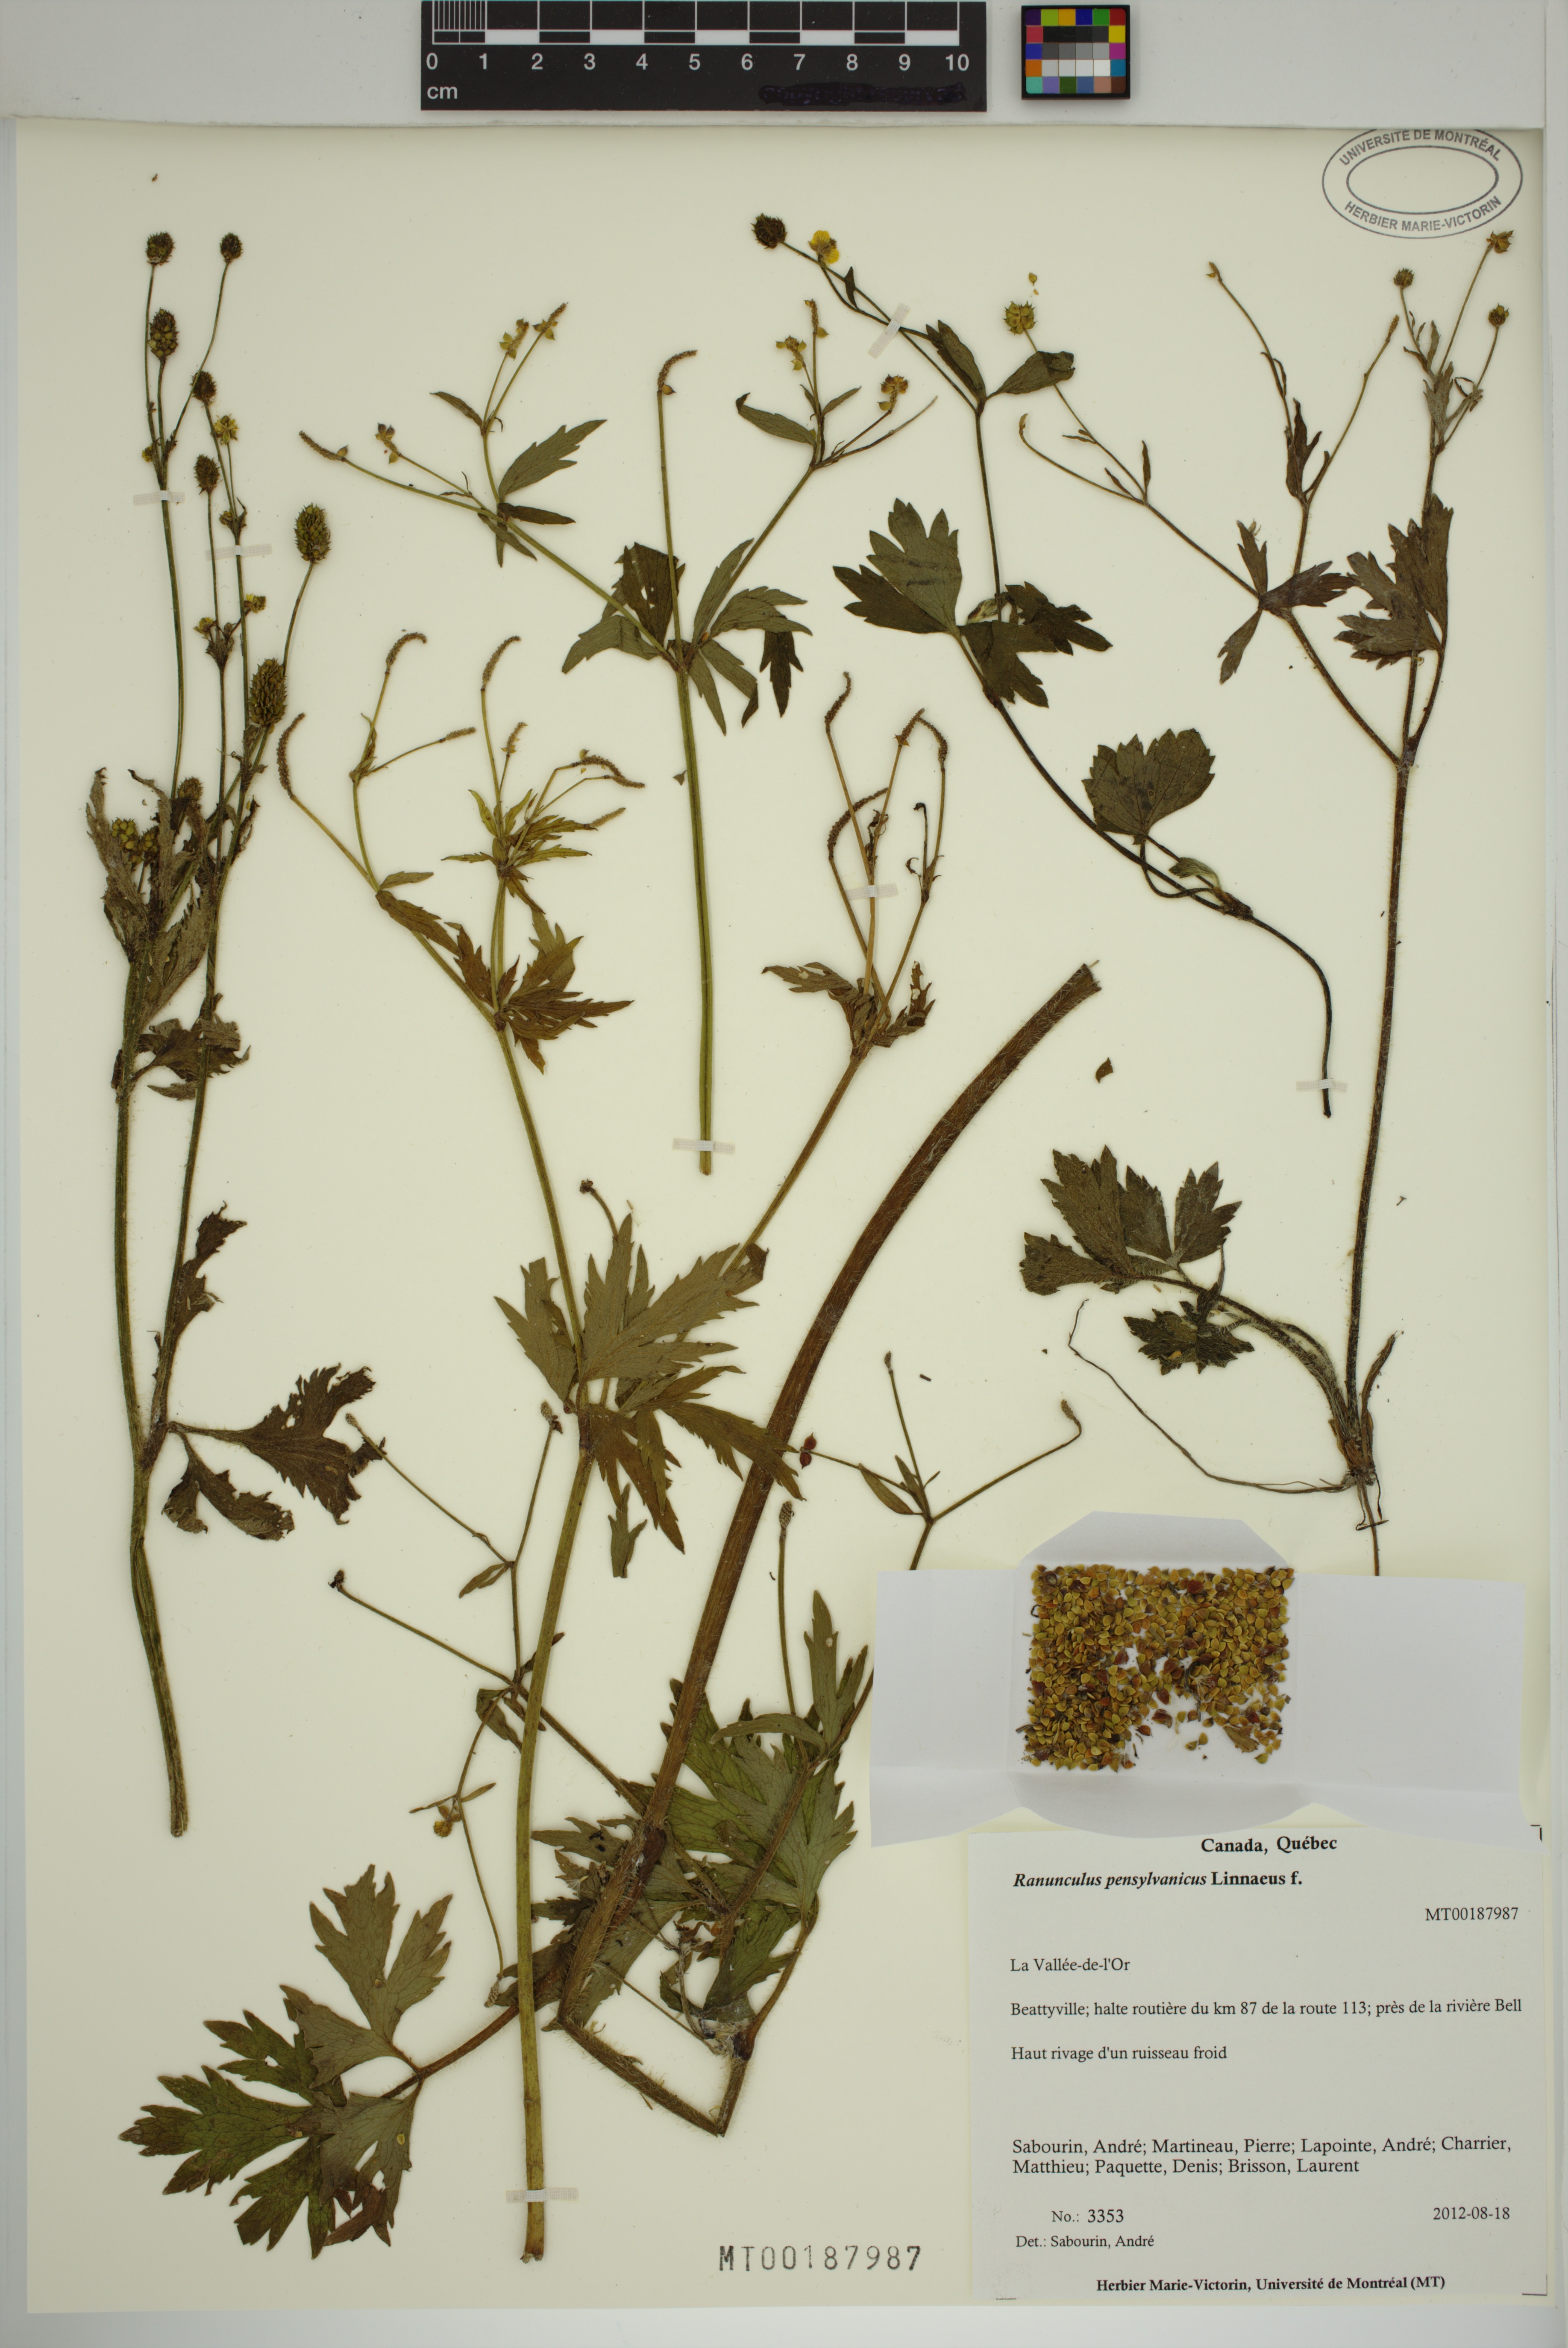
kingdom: Plantae
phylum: Tracheophyta
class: Magnoliopsida
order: Ranunculales
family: Ranunculaceae
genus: Ranunculus
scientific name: Ranunculus pensylvanicus
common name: Bristly buttercup
